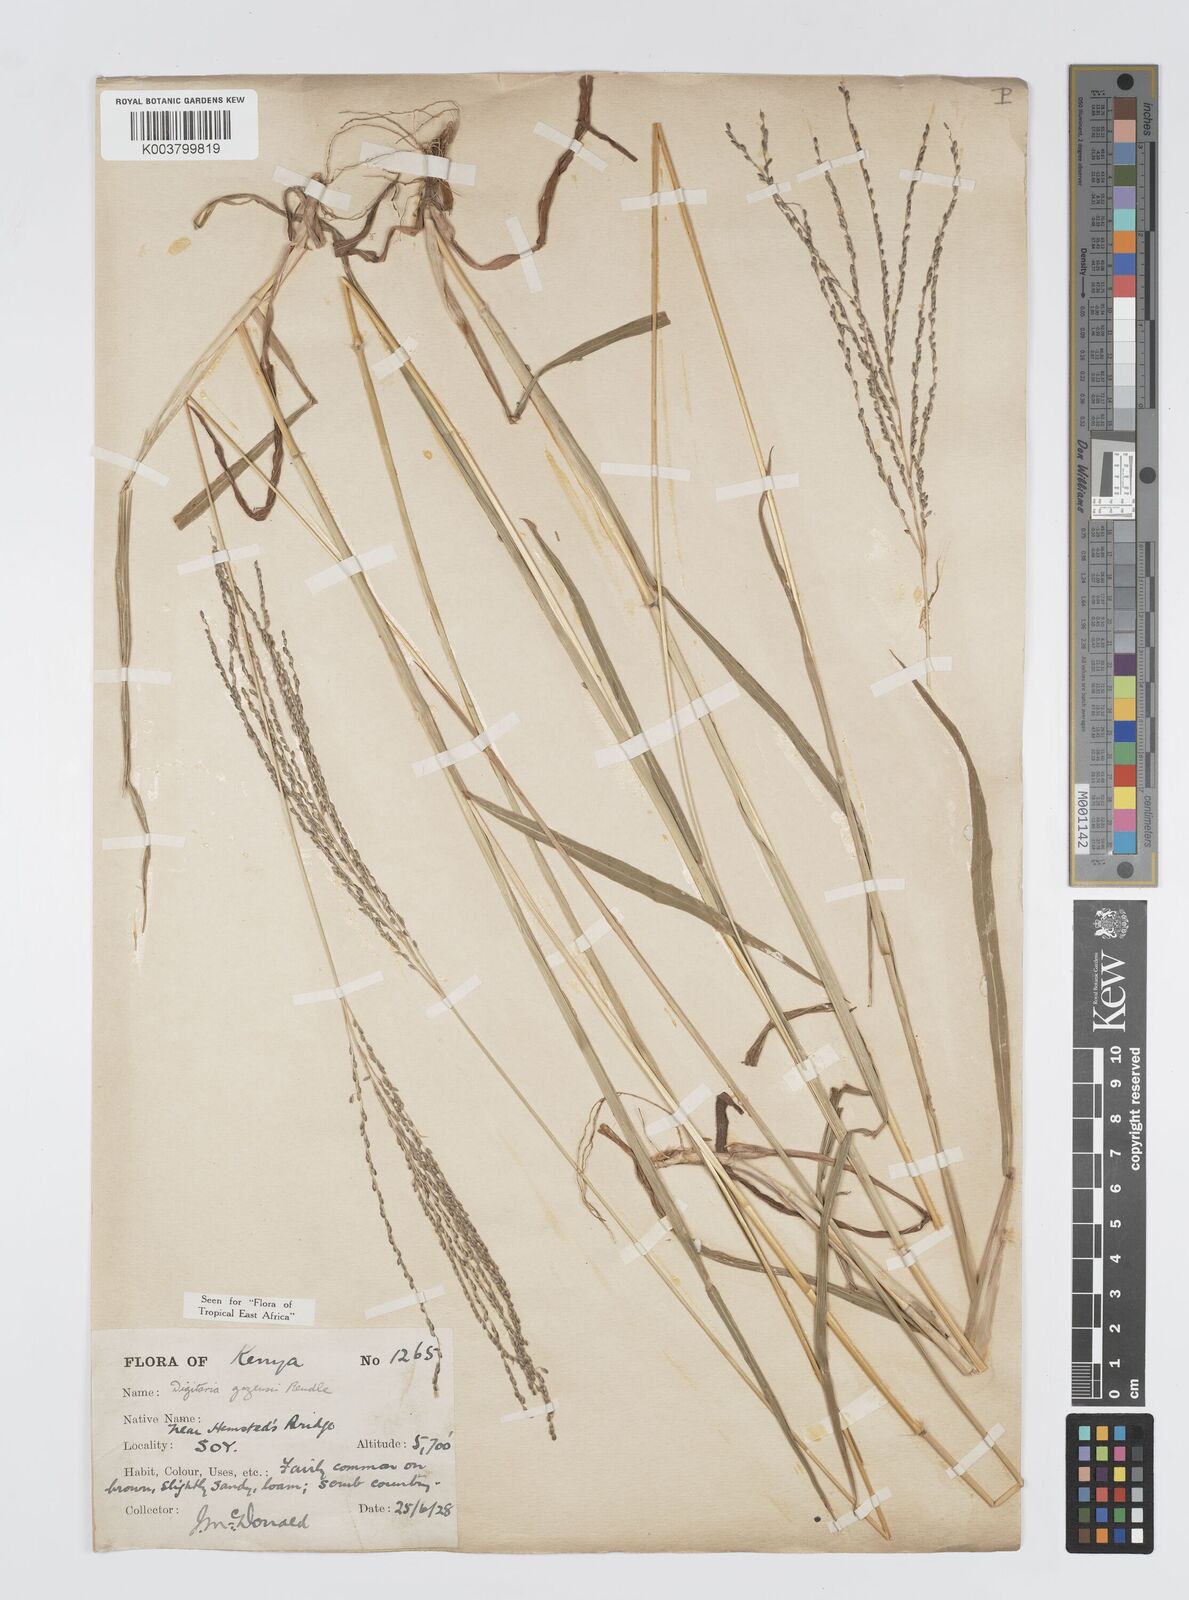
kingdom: Plantae
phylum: Tracheophyta
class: Liliopsida
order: Poales
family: Poaceae
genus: Digitaria
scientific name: Digitaria gazensis
